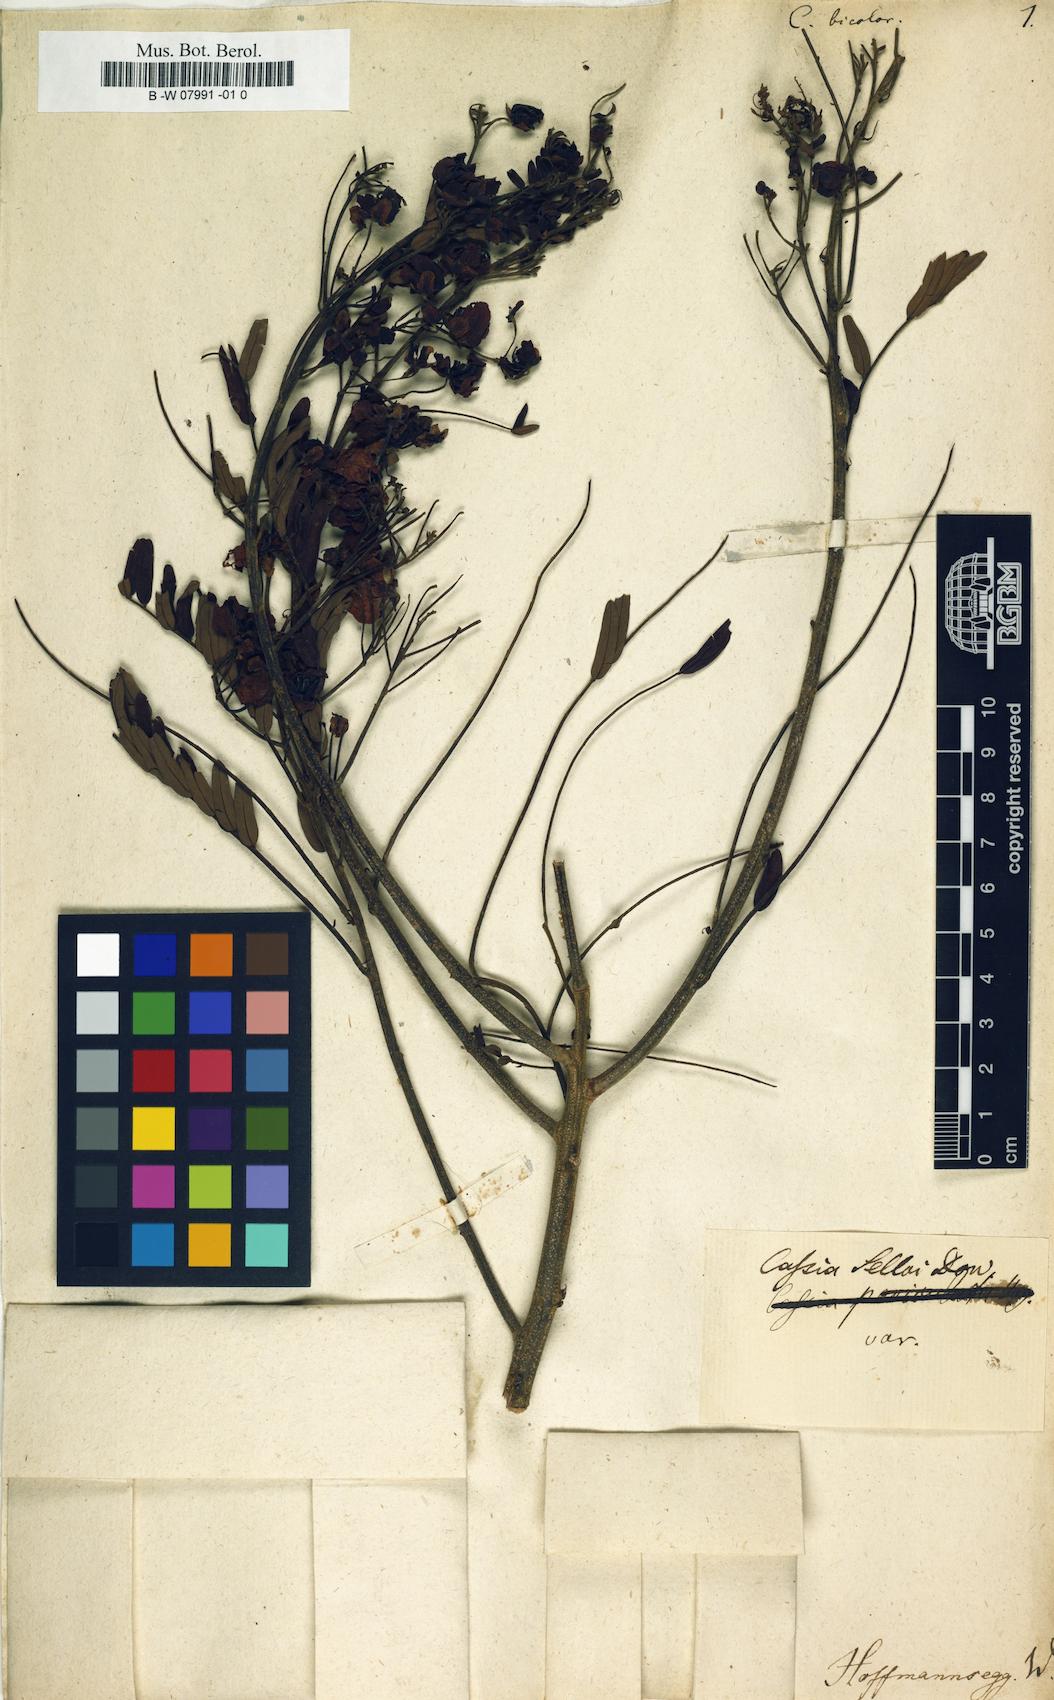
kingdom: Plantae
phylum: Tracheophyta
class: Magnoliopsida
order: Fabales
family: Fabaceae
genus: Cassia
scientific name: Cassia
